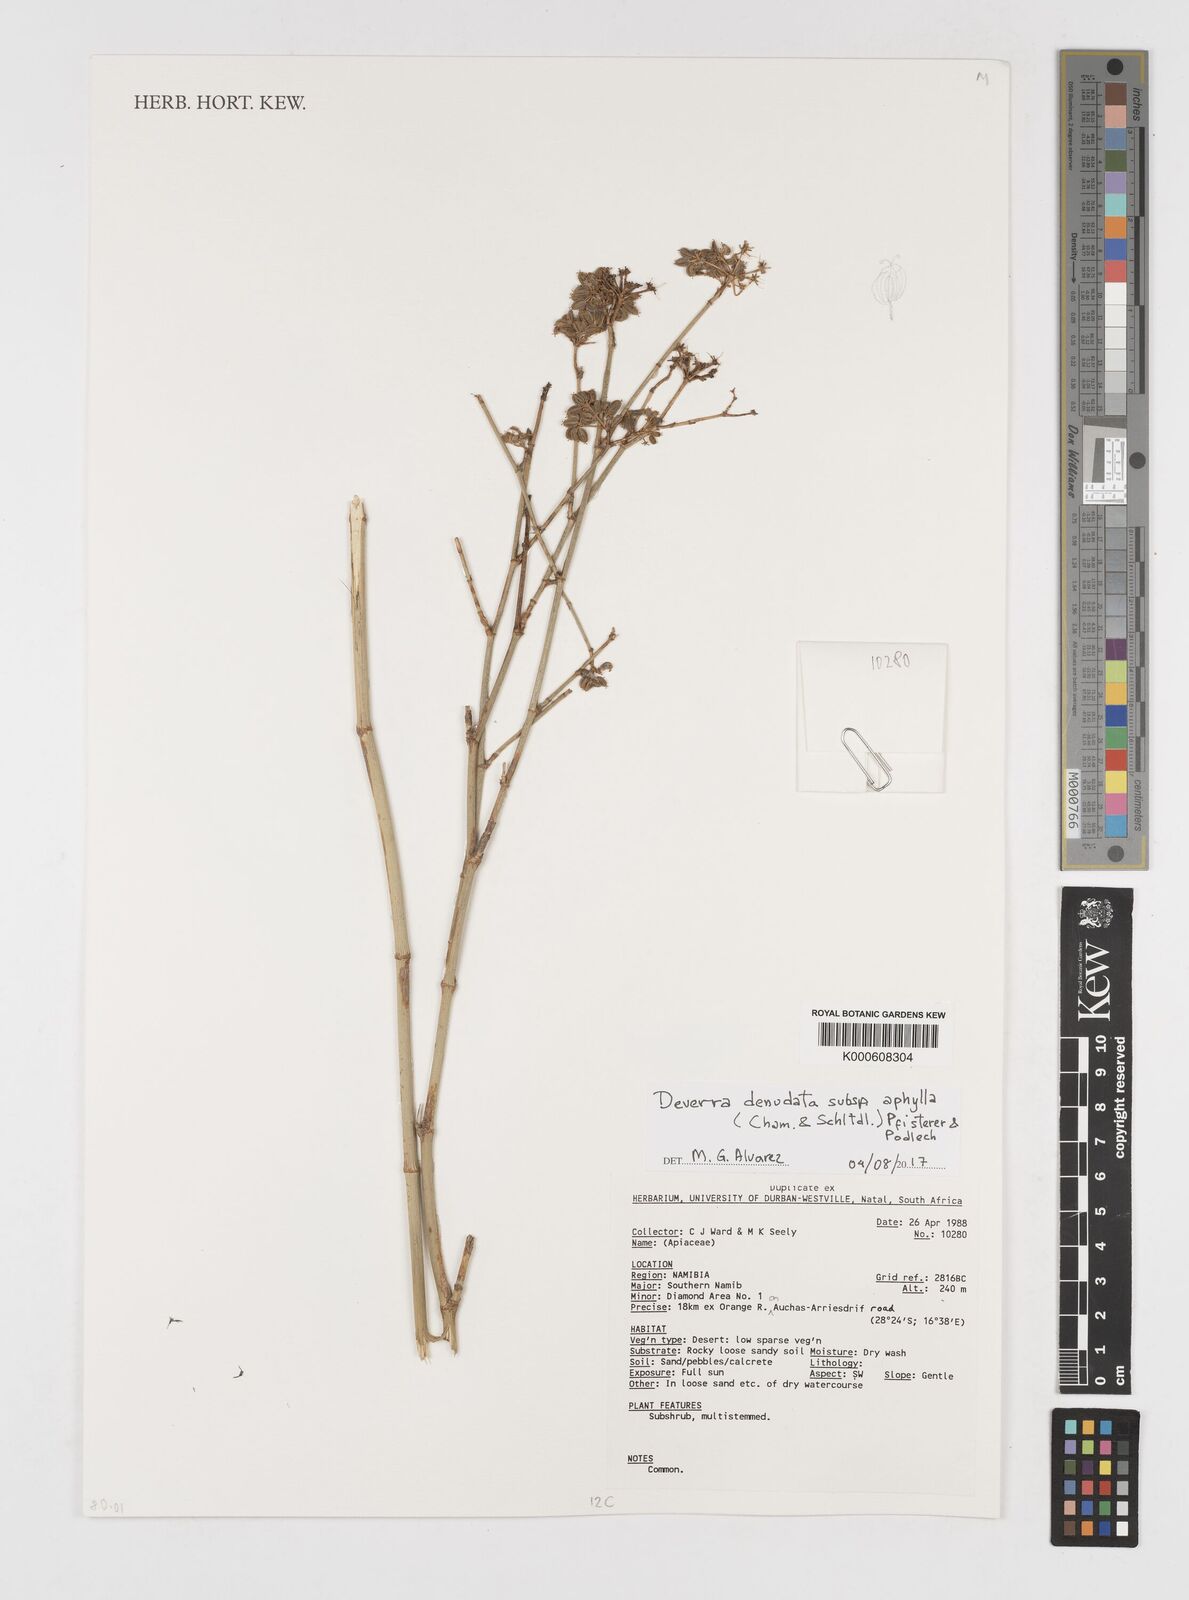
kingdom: Plantae
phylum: Tracheophyta
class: Magnoliopsida
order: Apiales
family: Apiaceae
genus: Deverra
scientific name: Deverra aphylla
